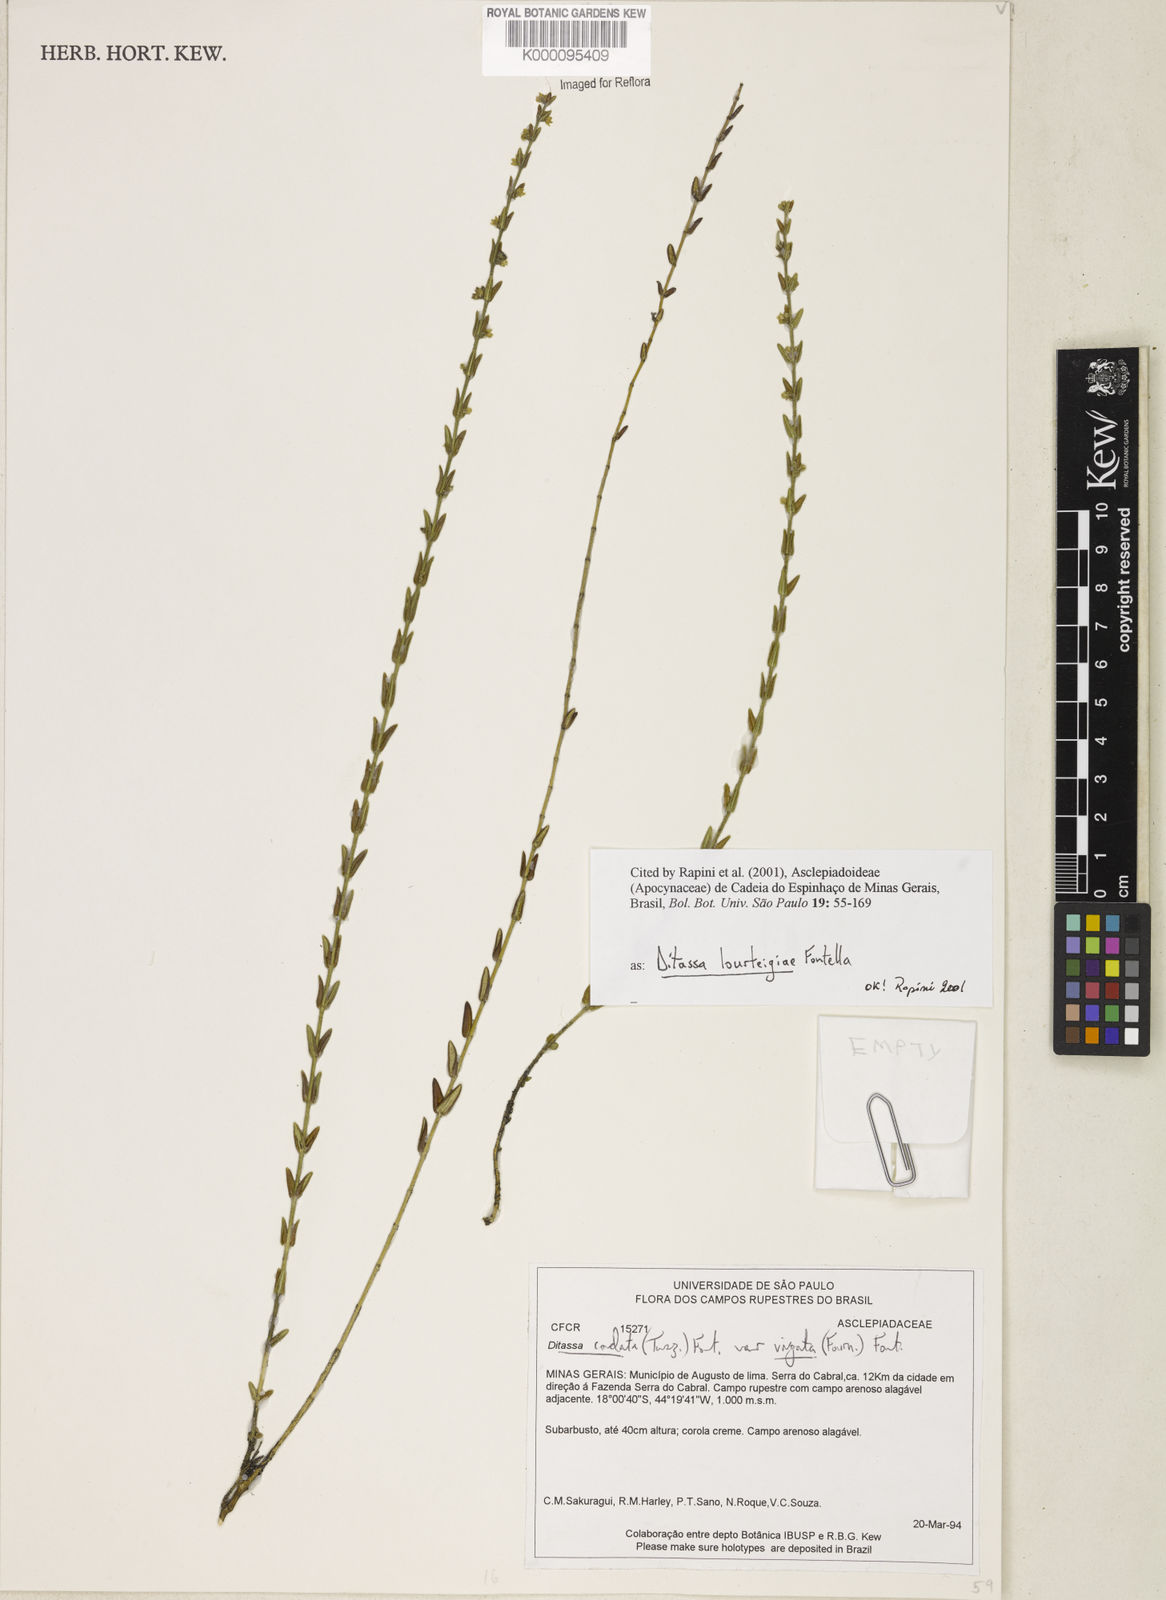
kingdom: Plantae
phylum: Tracheophyta
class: Magnoliopsida
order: Gentianales
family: Apocynaceae
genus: Minaria
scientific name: Minaria lourteigiae
